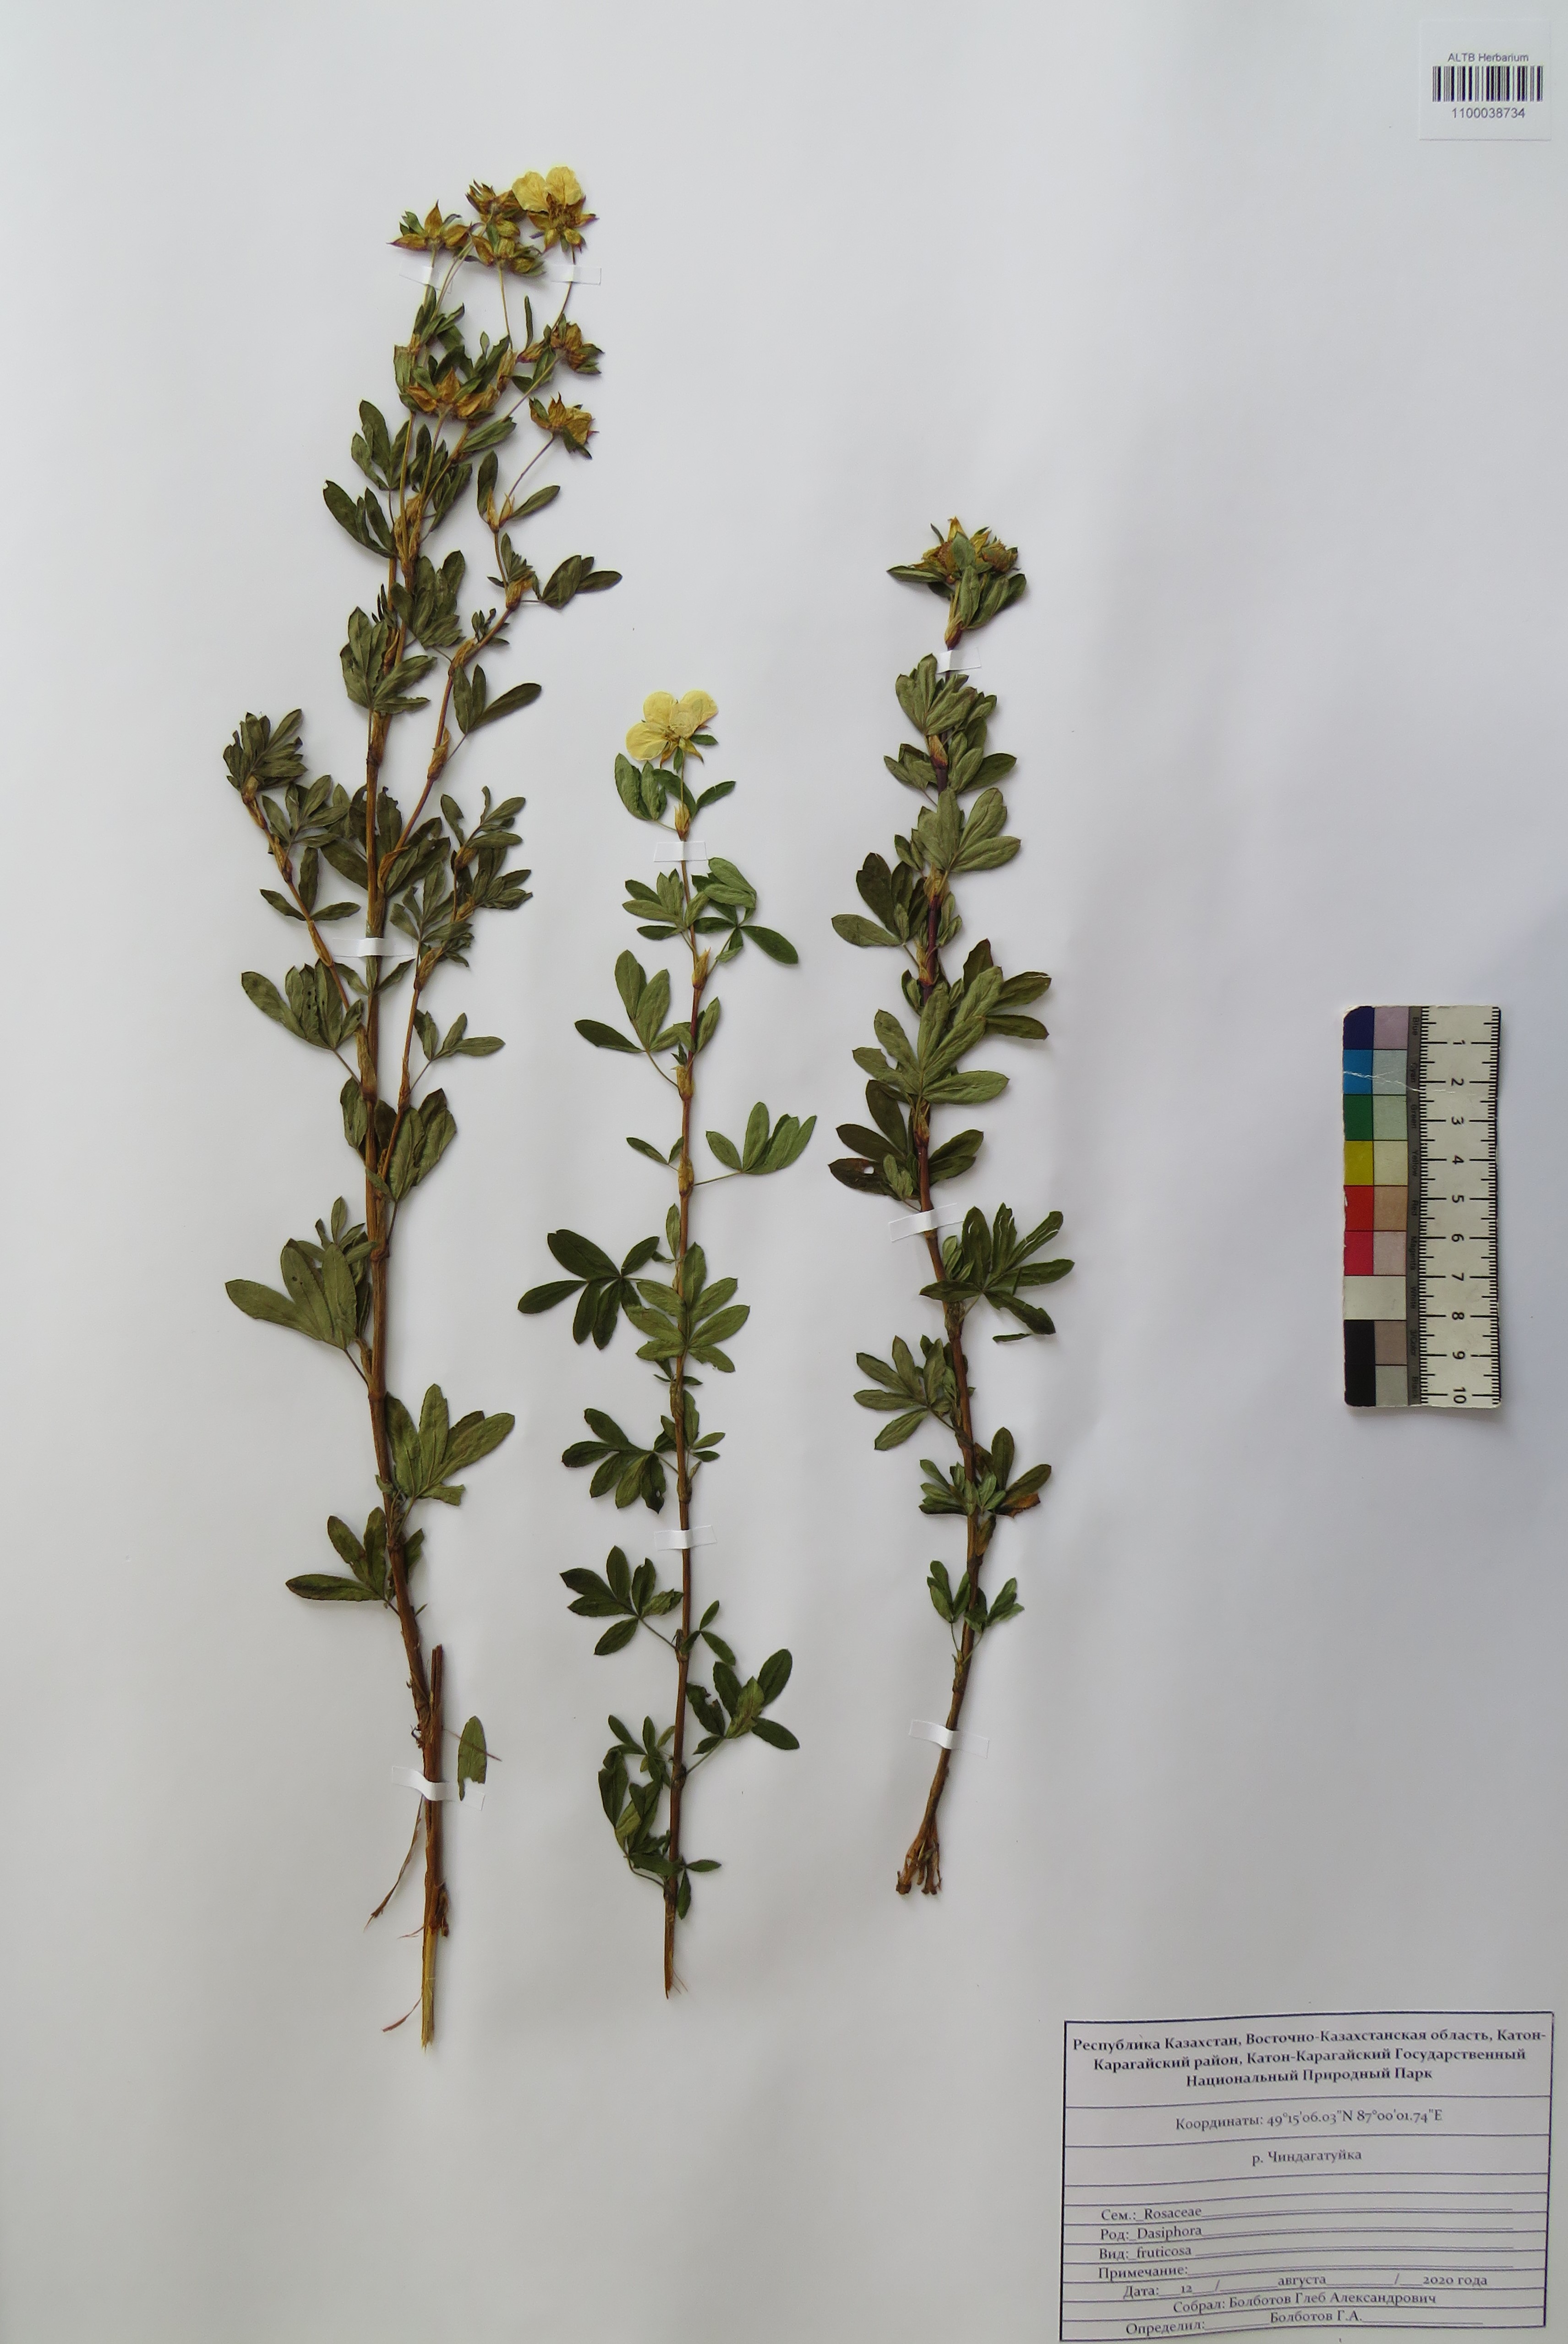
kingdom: Plantae
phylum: Tracheophyta
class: Magnoliopsida
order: Rosales
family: Rosaceae
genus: Dasiphora
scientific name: Dasiphora fruticosa
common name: Shrubby cinquefoil
